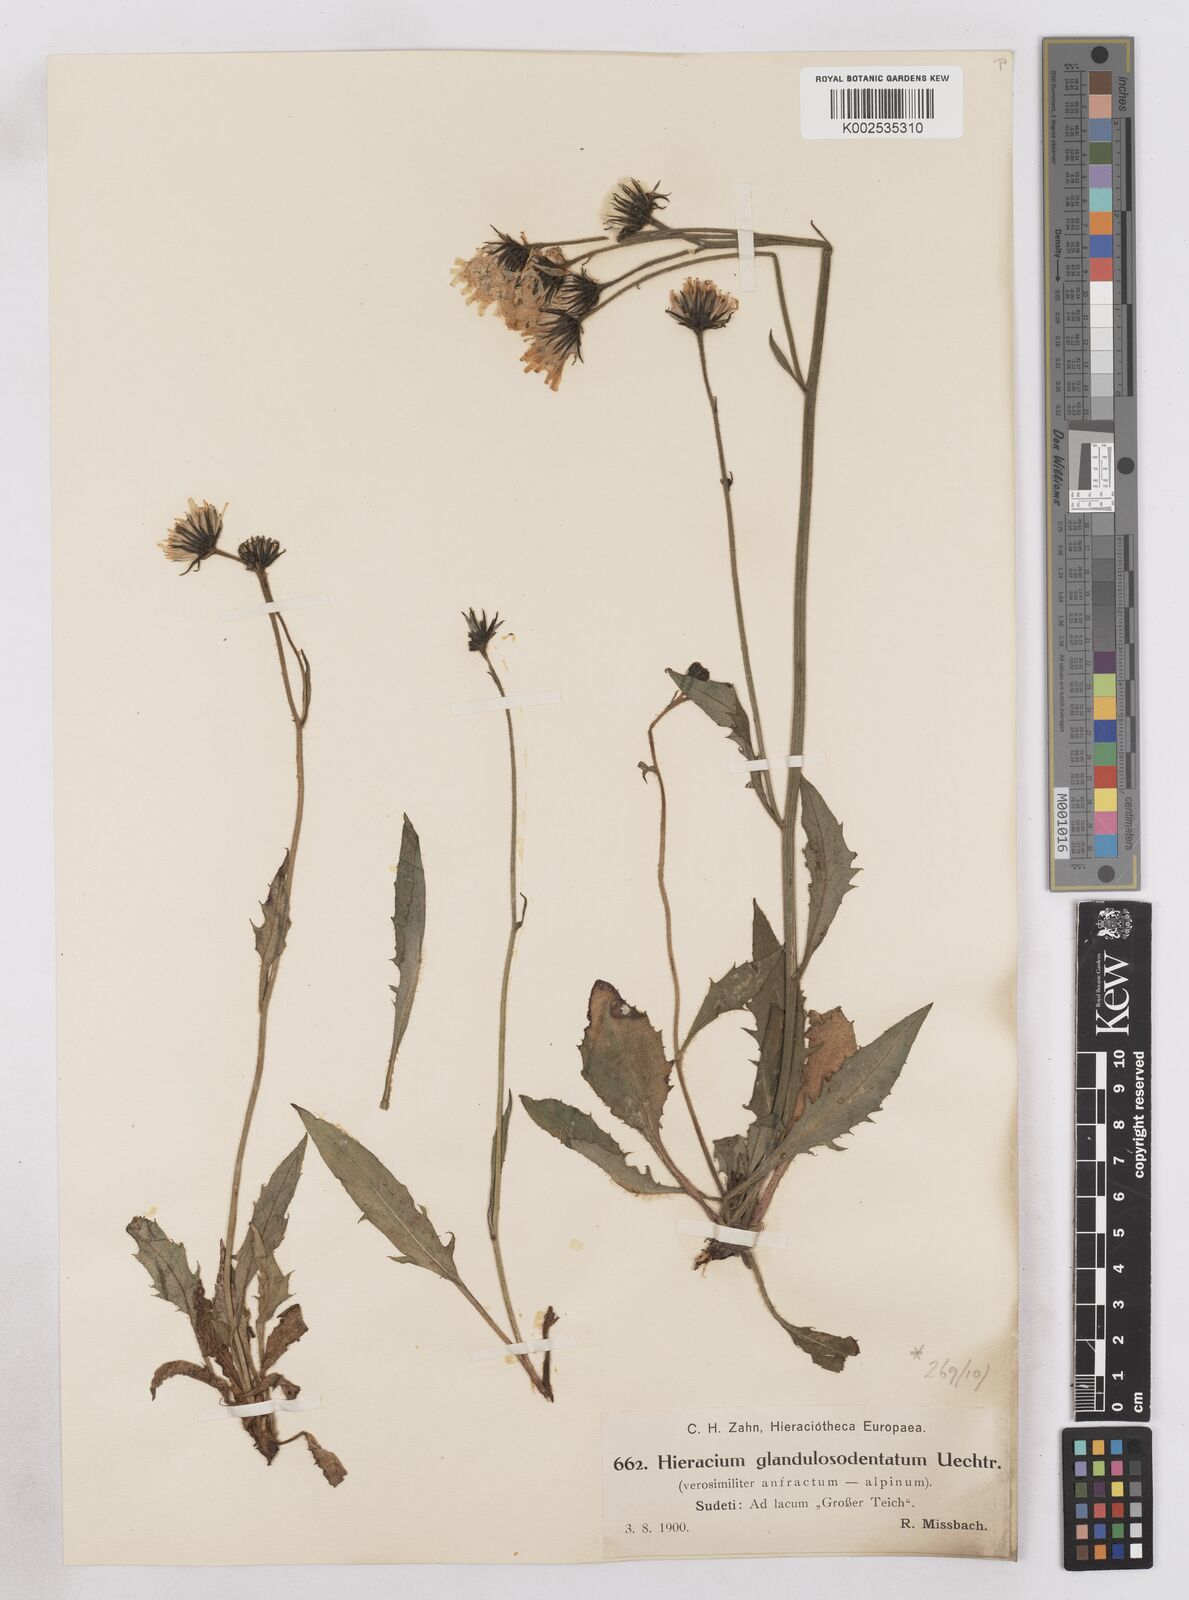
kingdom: Plantae
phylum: Tracheophyta
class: Magnoliopsida
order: Asterales
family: Asteraceae
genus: Hieracium
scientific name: Hieracium bocconei
